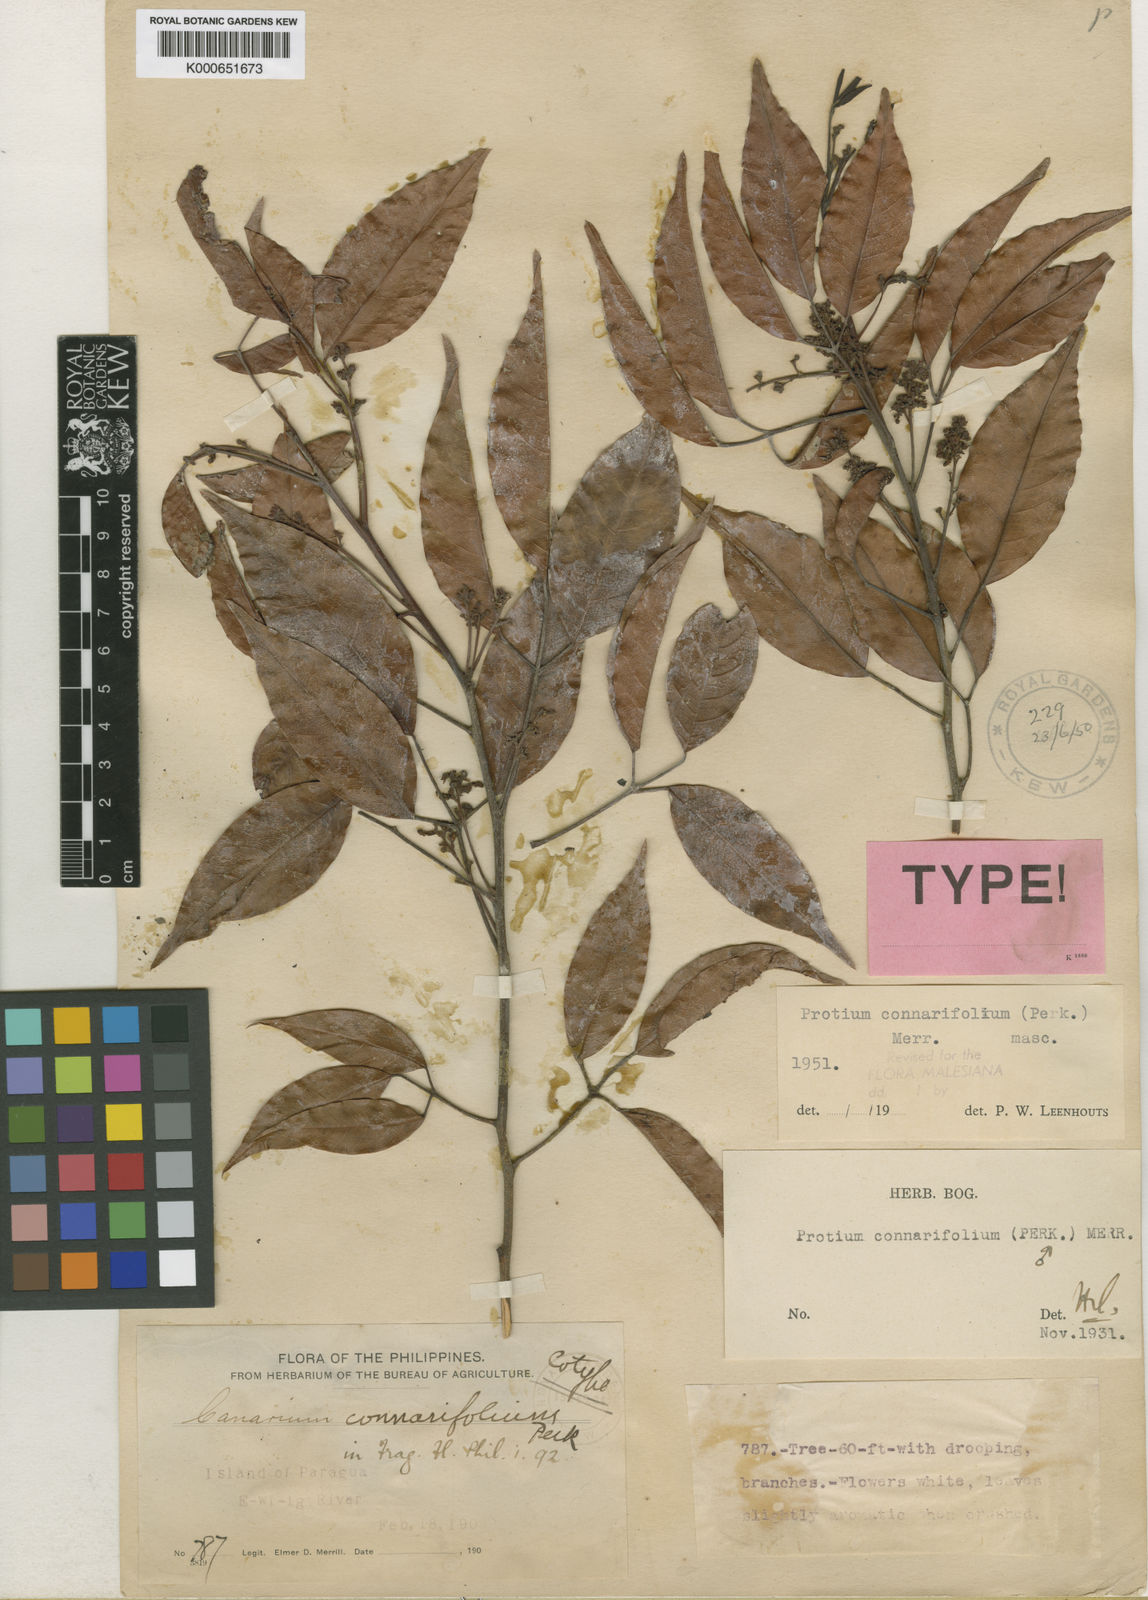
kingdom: Plantae
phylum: Tracheophyta
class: Magnoliopsida
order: Sapindales
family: Burseraceae
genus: Protium
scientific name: Protium connarifolium
